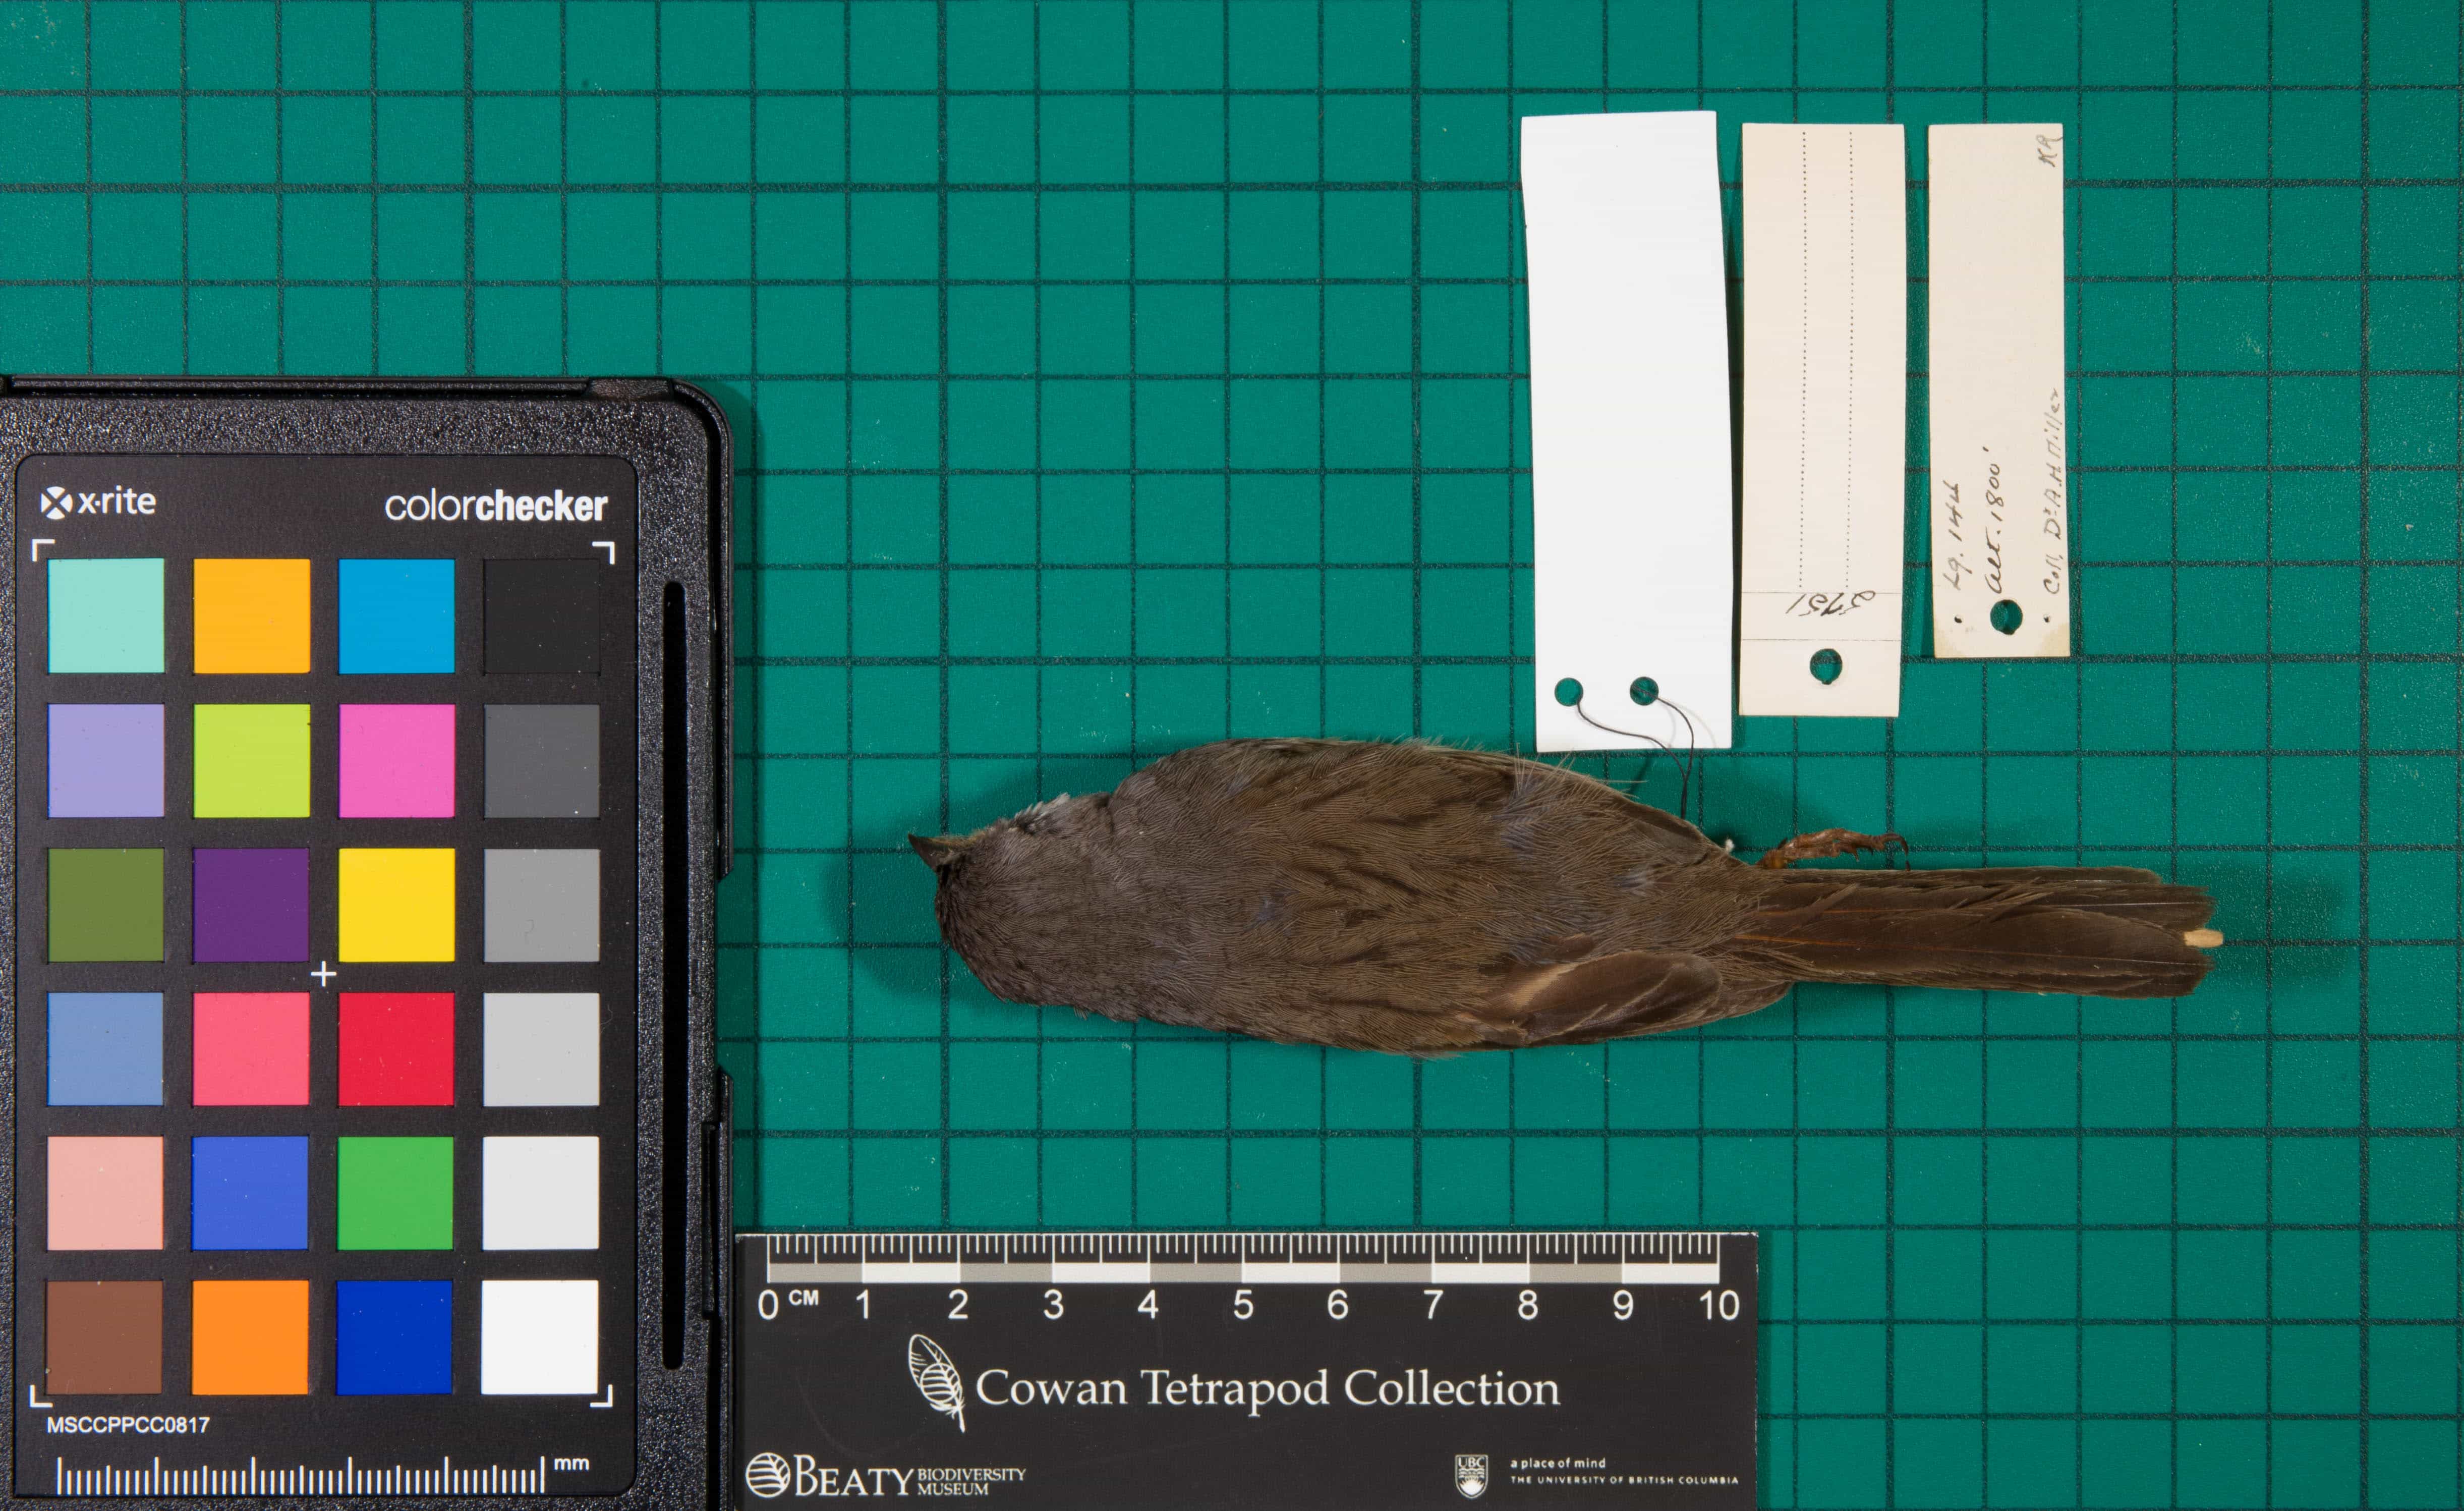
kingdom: Animalia
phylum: Chordata
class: Aves
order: Passeriformes
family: Passerellidae
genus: Artemisiospiza
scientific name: Artemisiospiza belli
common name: Bell's Sparrow
